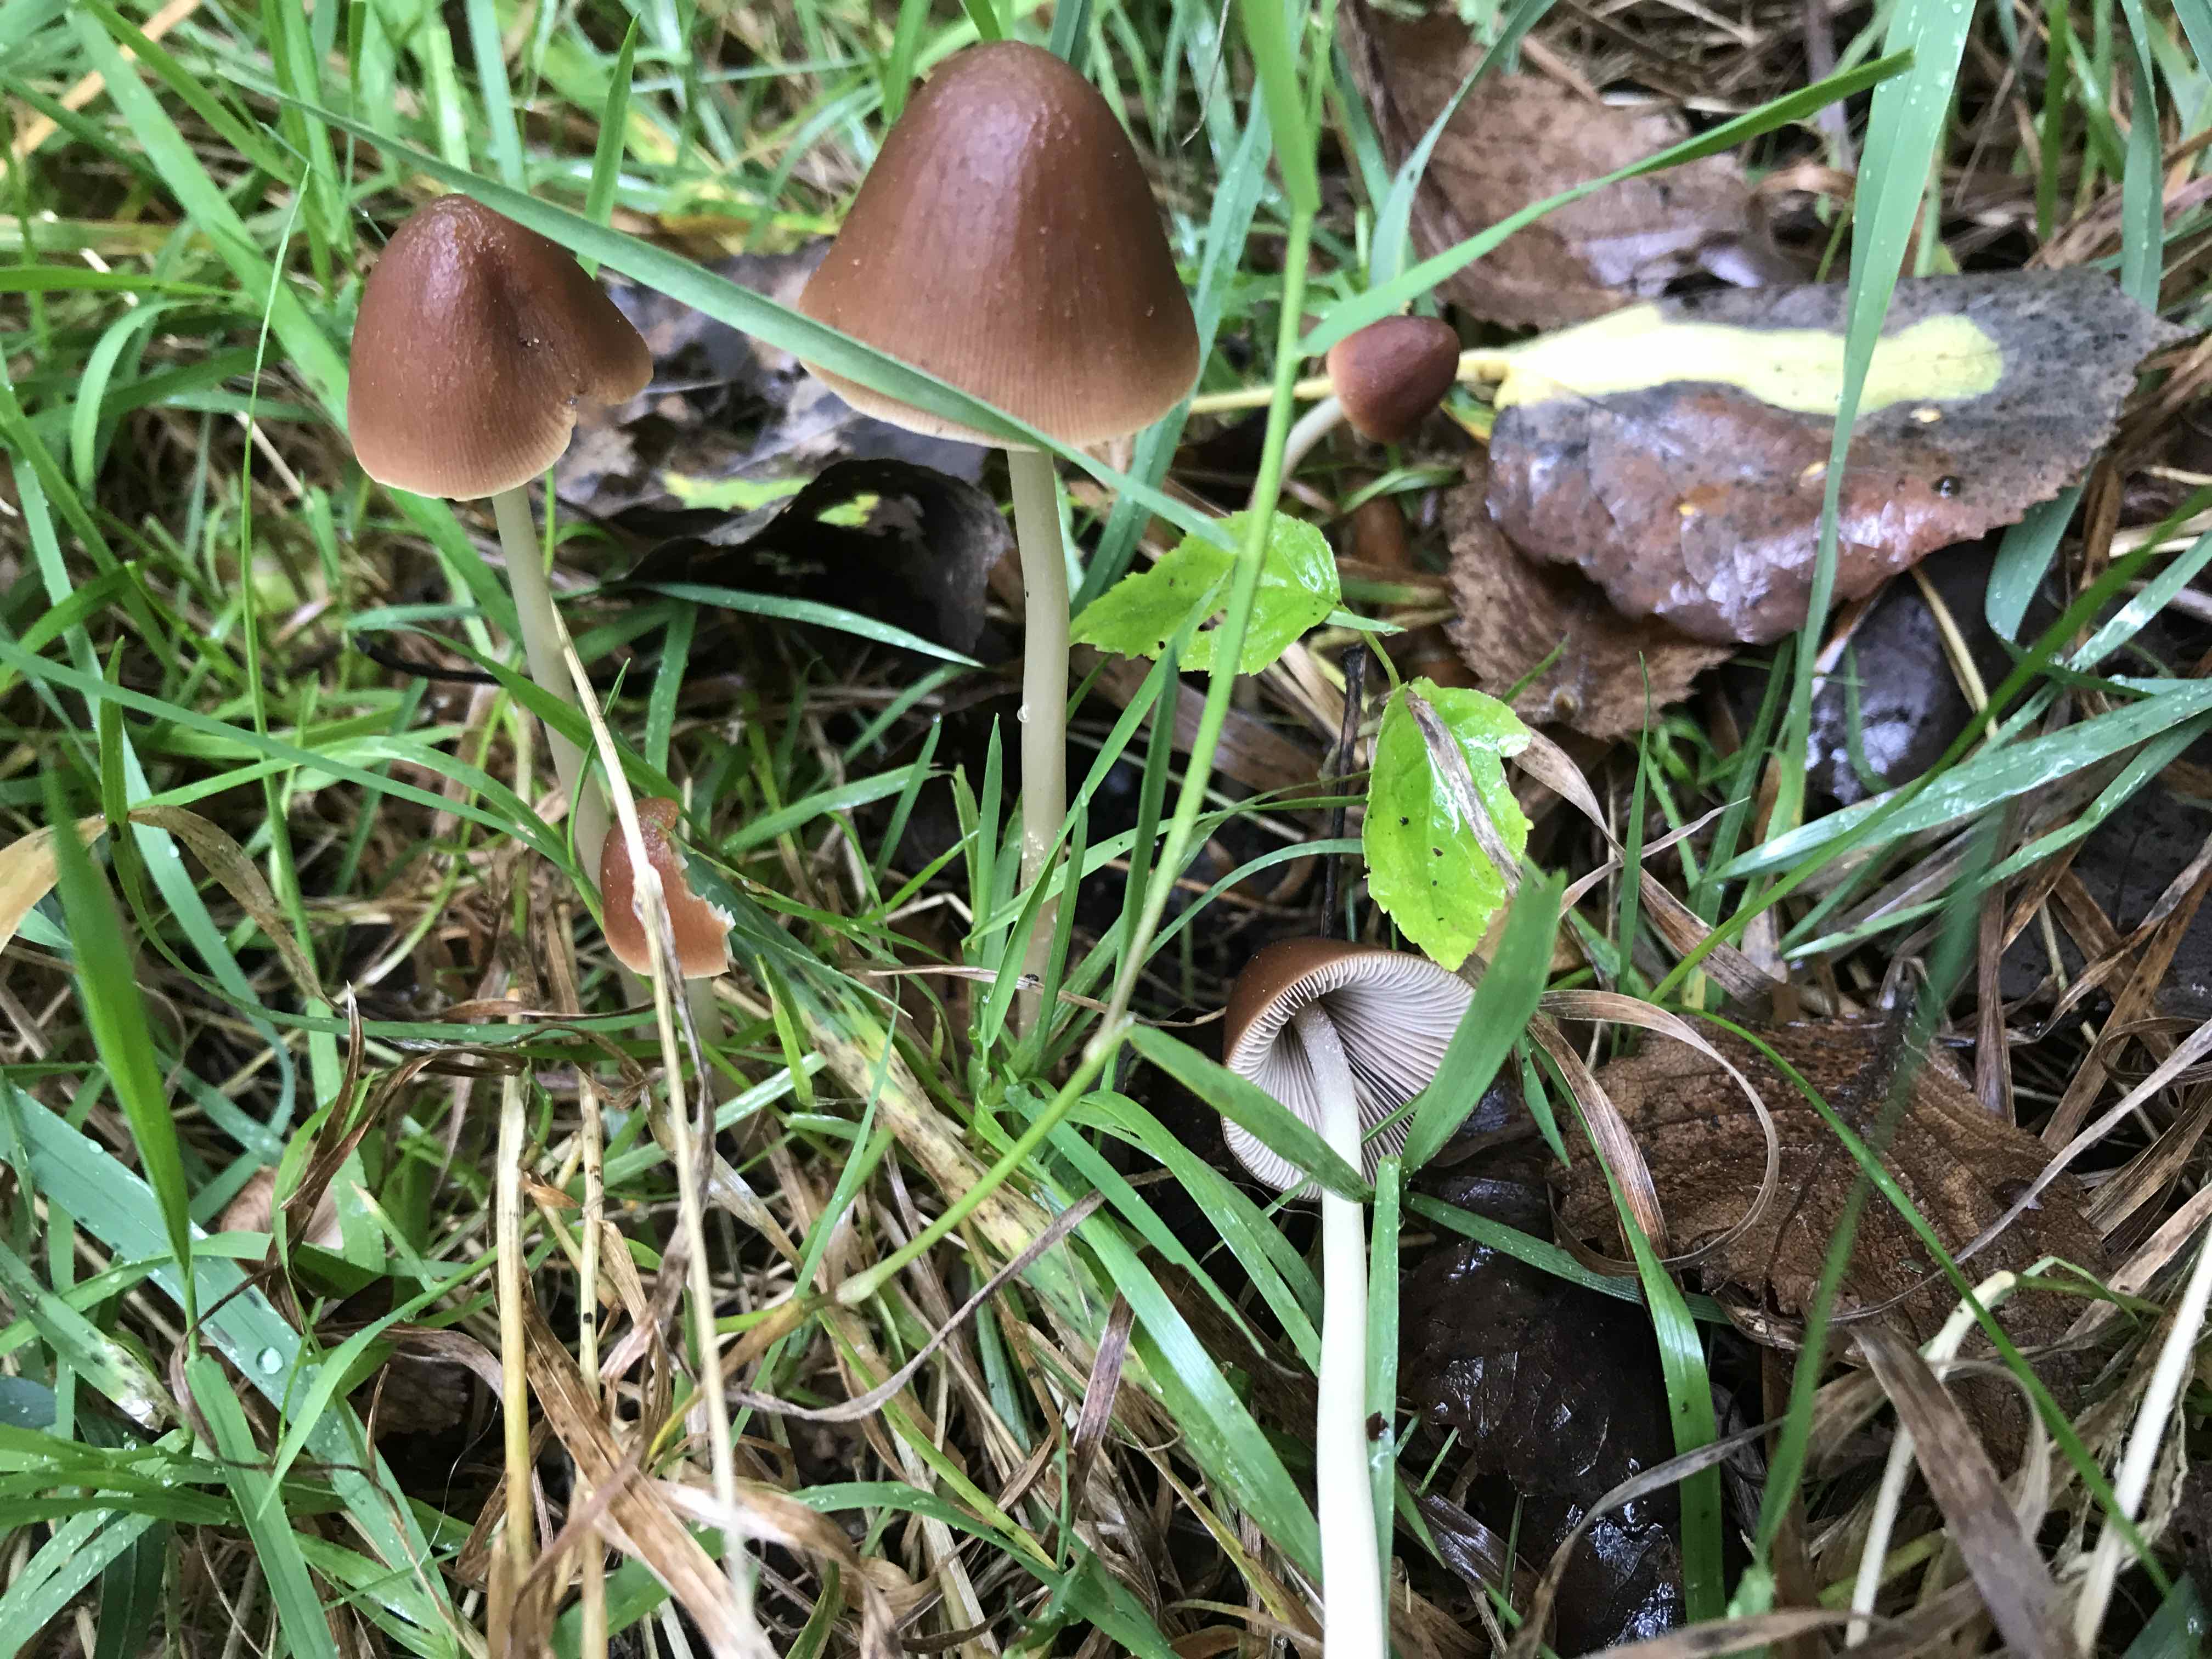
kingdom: Fungi
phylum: Basidiomycota
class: Agaricomycetes
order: Agaricales
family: Psathyrellaceae
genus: Parasola
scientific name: Parasola conopilea
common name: kegle-hjulhat
